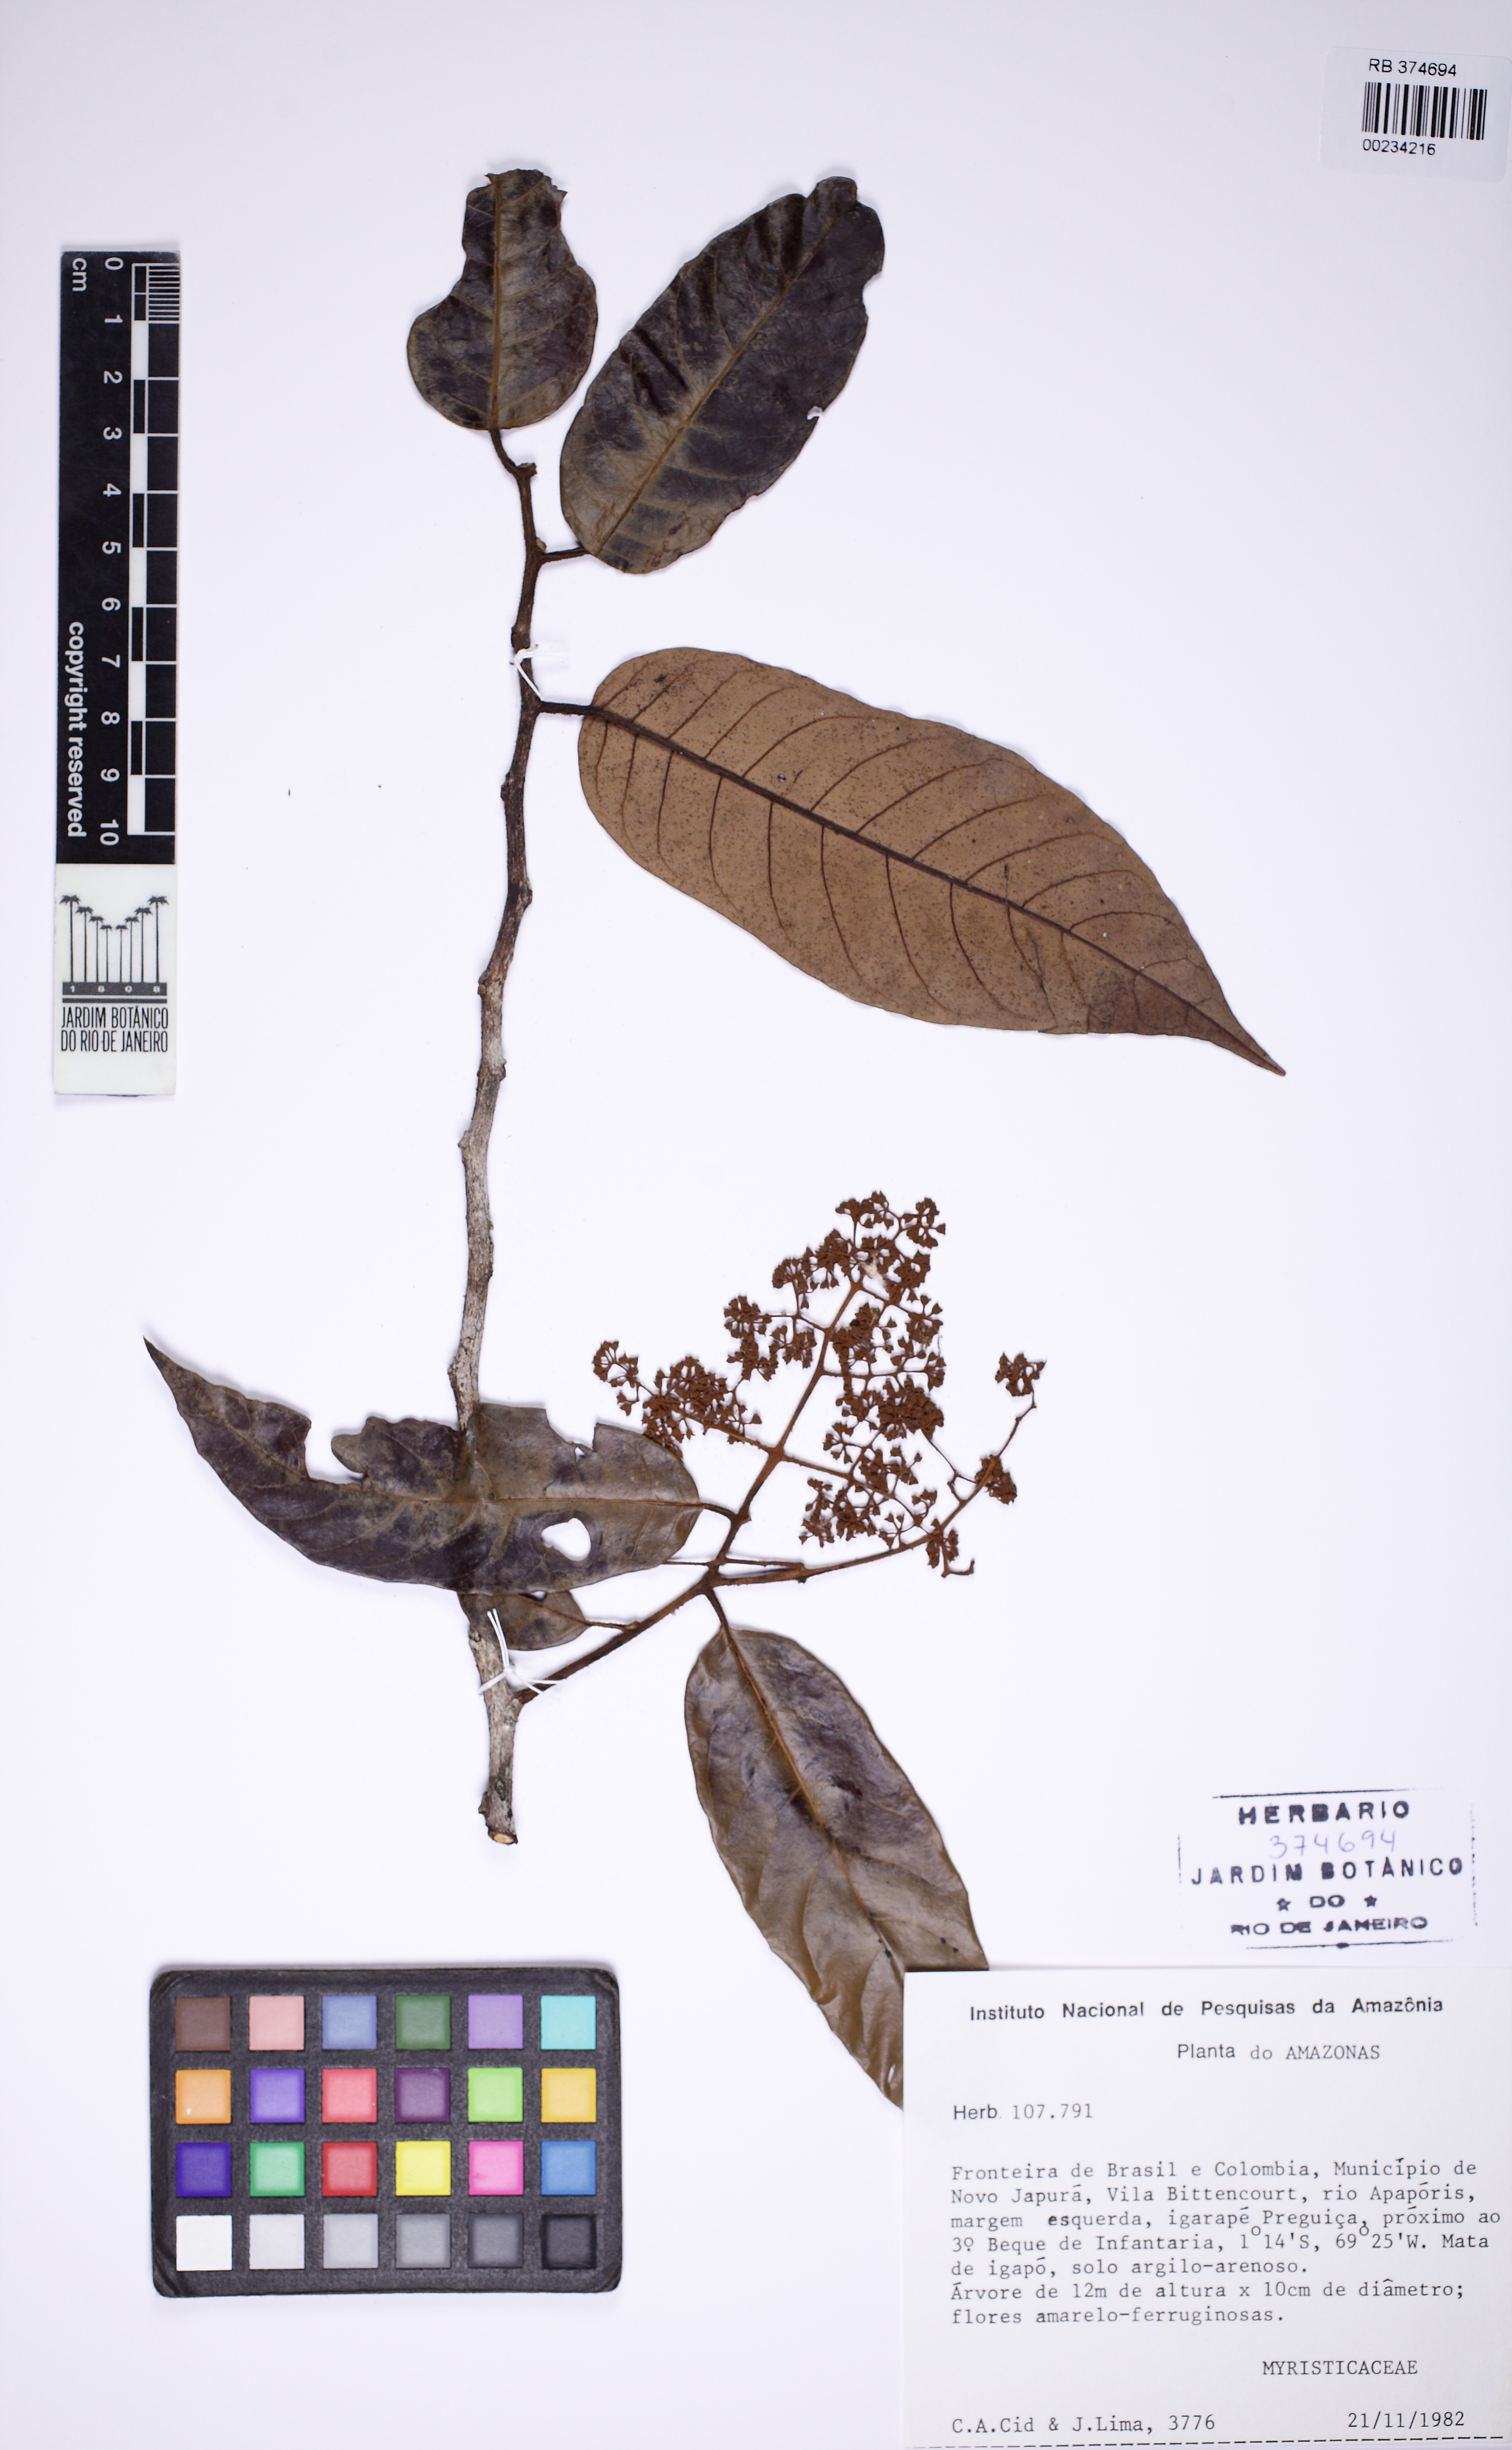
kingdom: Plantae
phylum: Tracheophyta
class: Magnoliopsida
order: Magnoliales
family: Myristicaceae
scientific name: Myristicaceae
